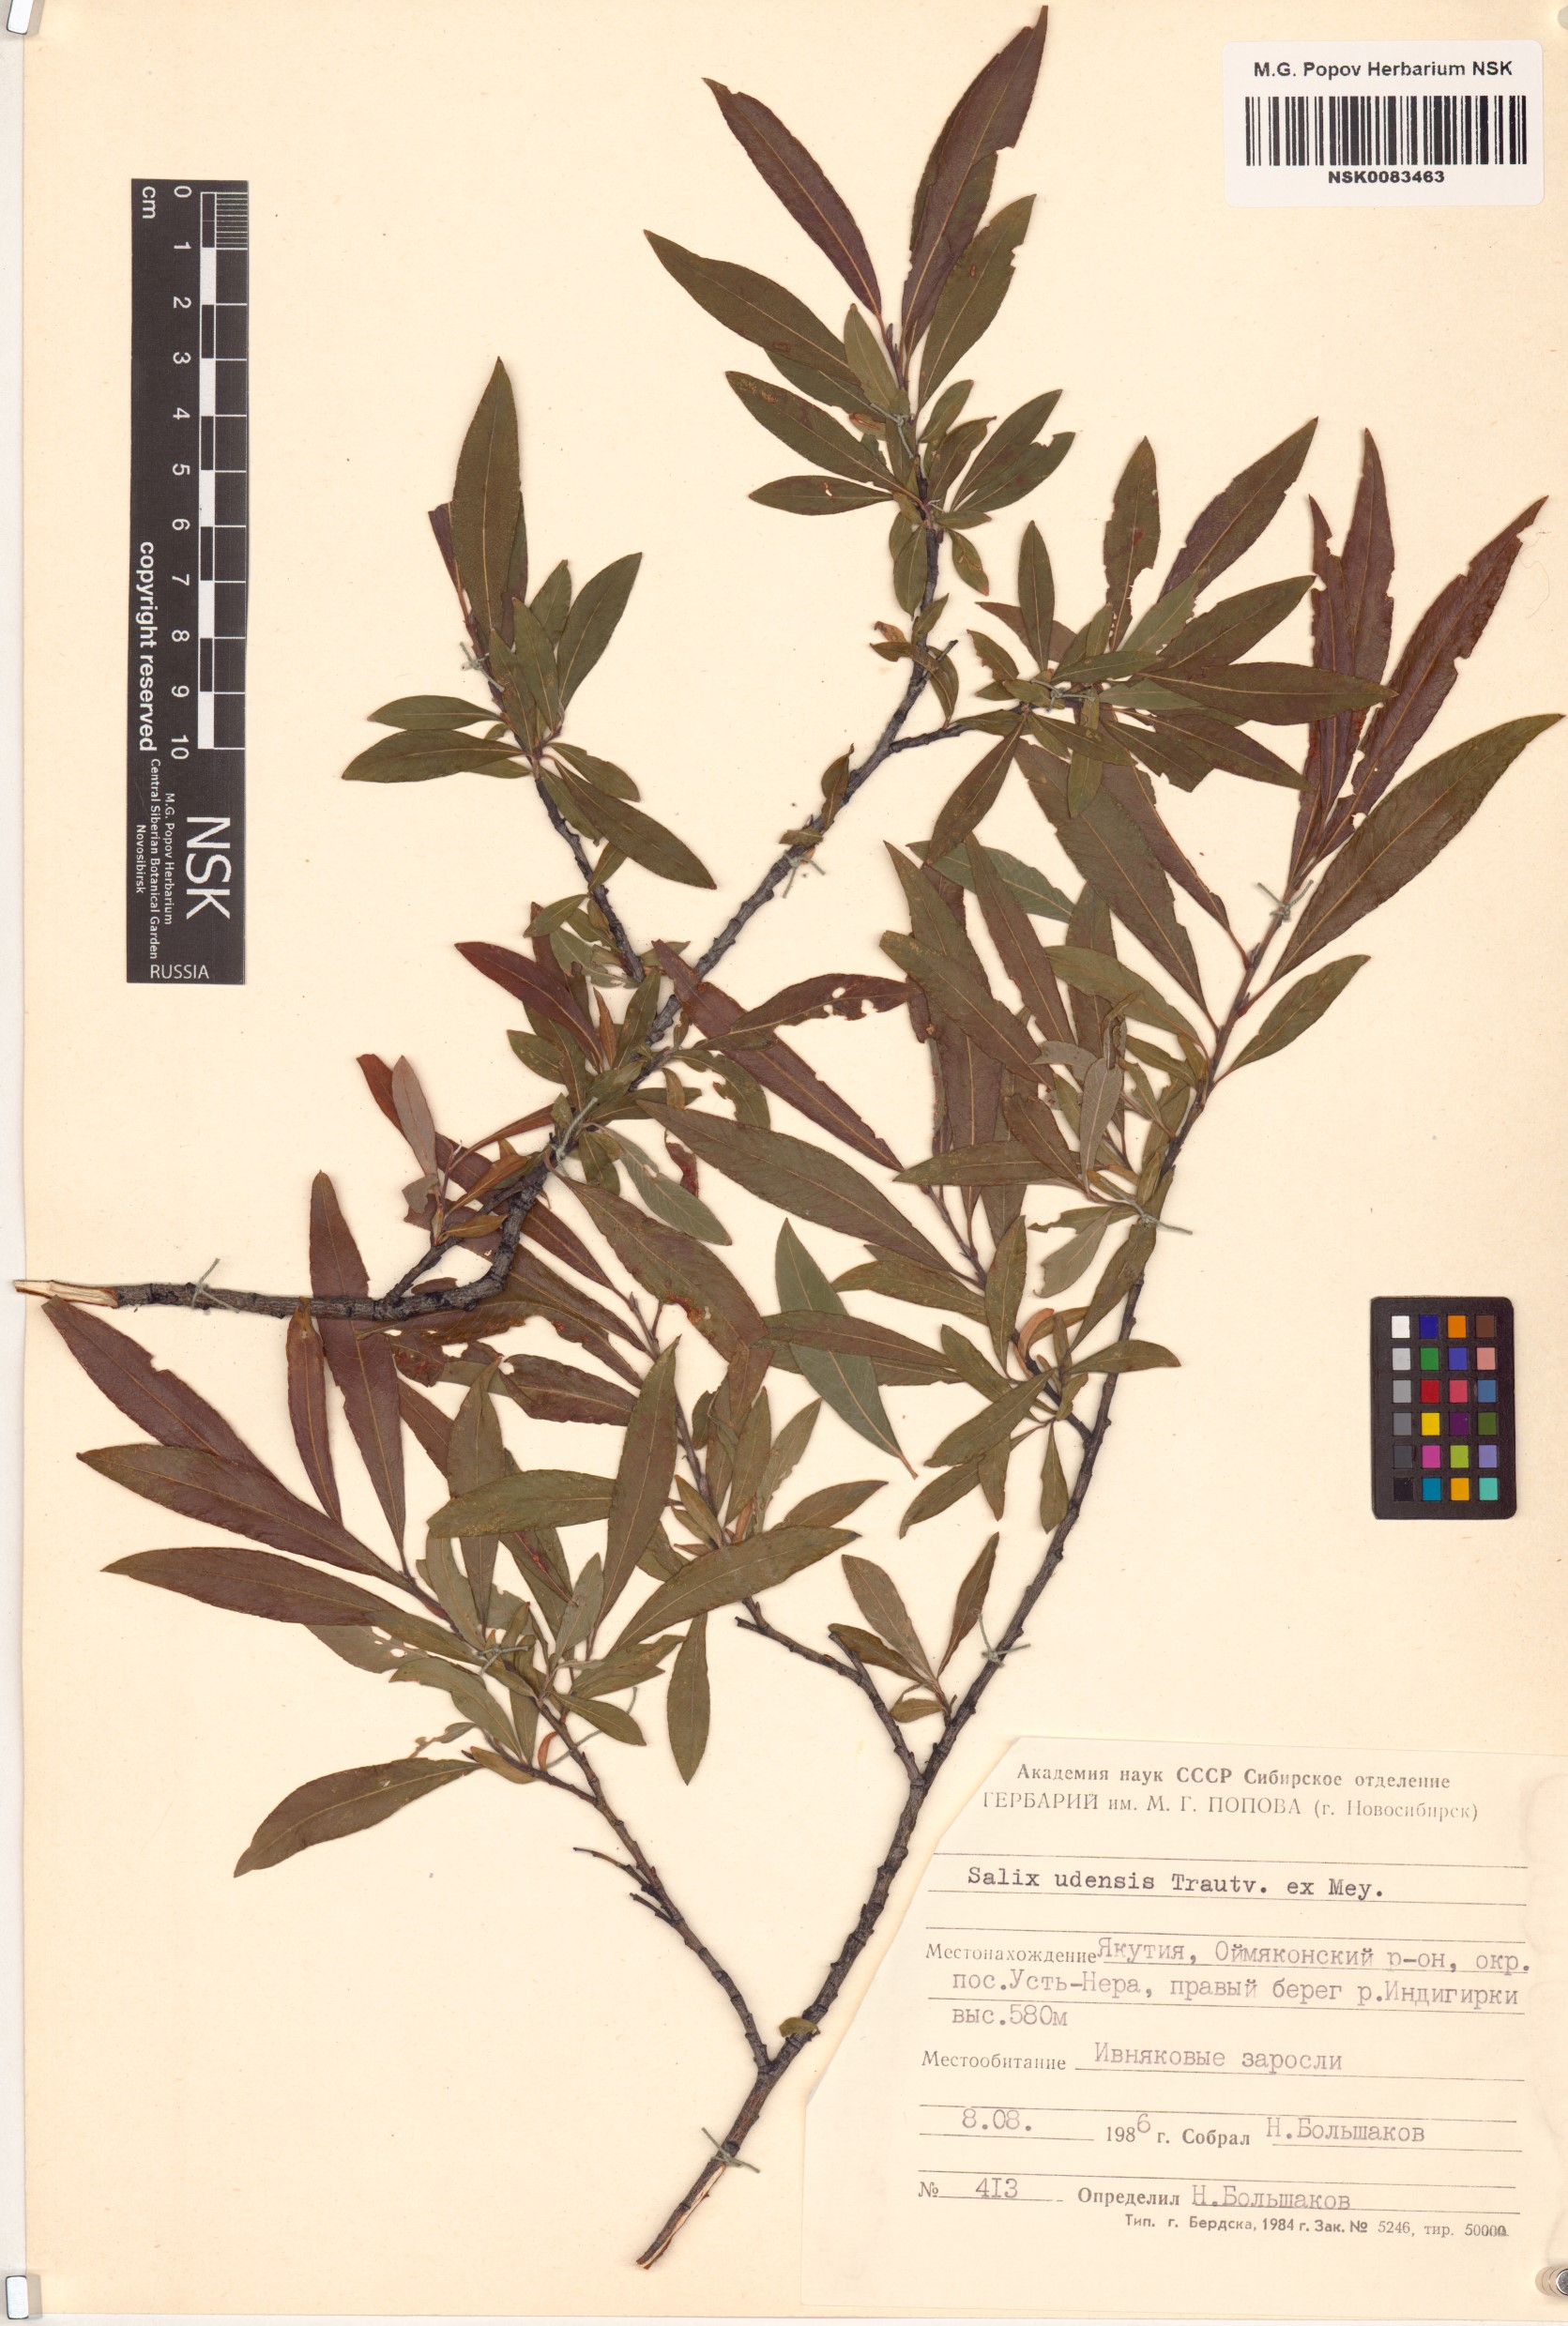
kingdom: Plantae
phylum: Tracheophyta
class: Magnoliopsida
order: Malpighiales
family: Salicaceae
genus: Salix
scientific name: Salix udensis
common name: Sachalin willow
